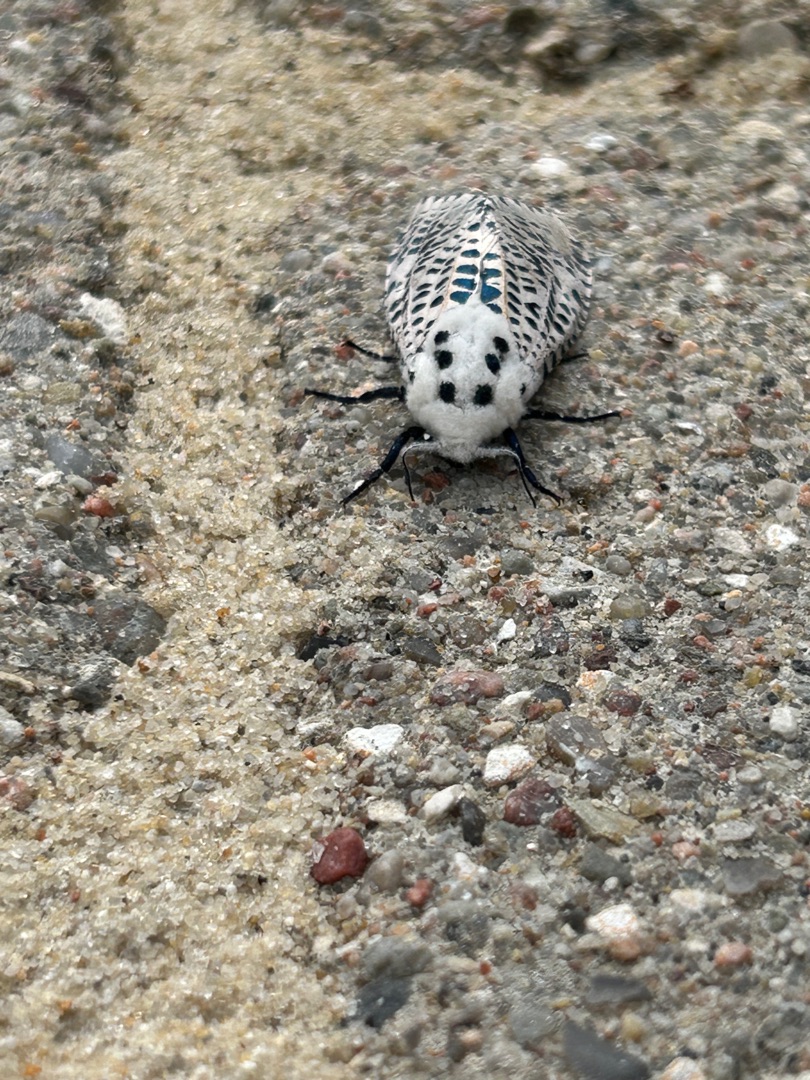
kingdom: Animalia
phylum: Arthropoda
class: Insecta
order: Lepidoptera
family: Cossidae
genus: Zeuzera
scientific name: Zeuzera pyrina
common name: Plettet træborer
